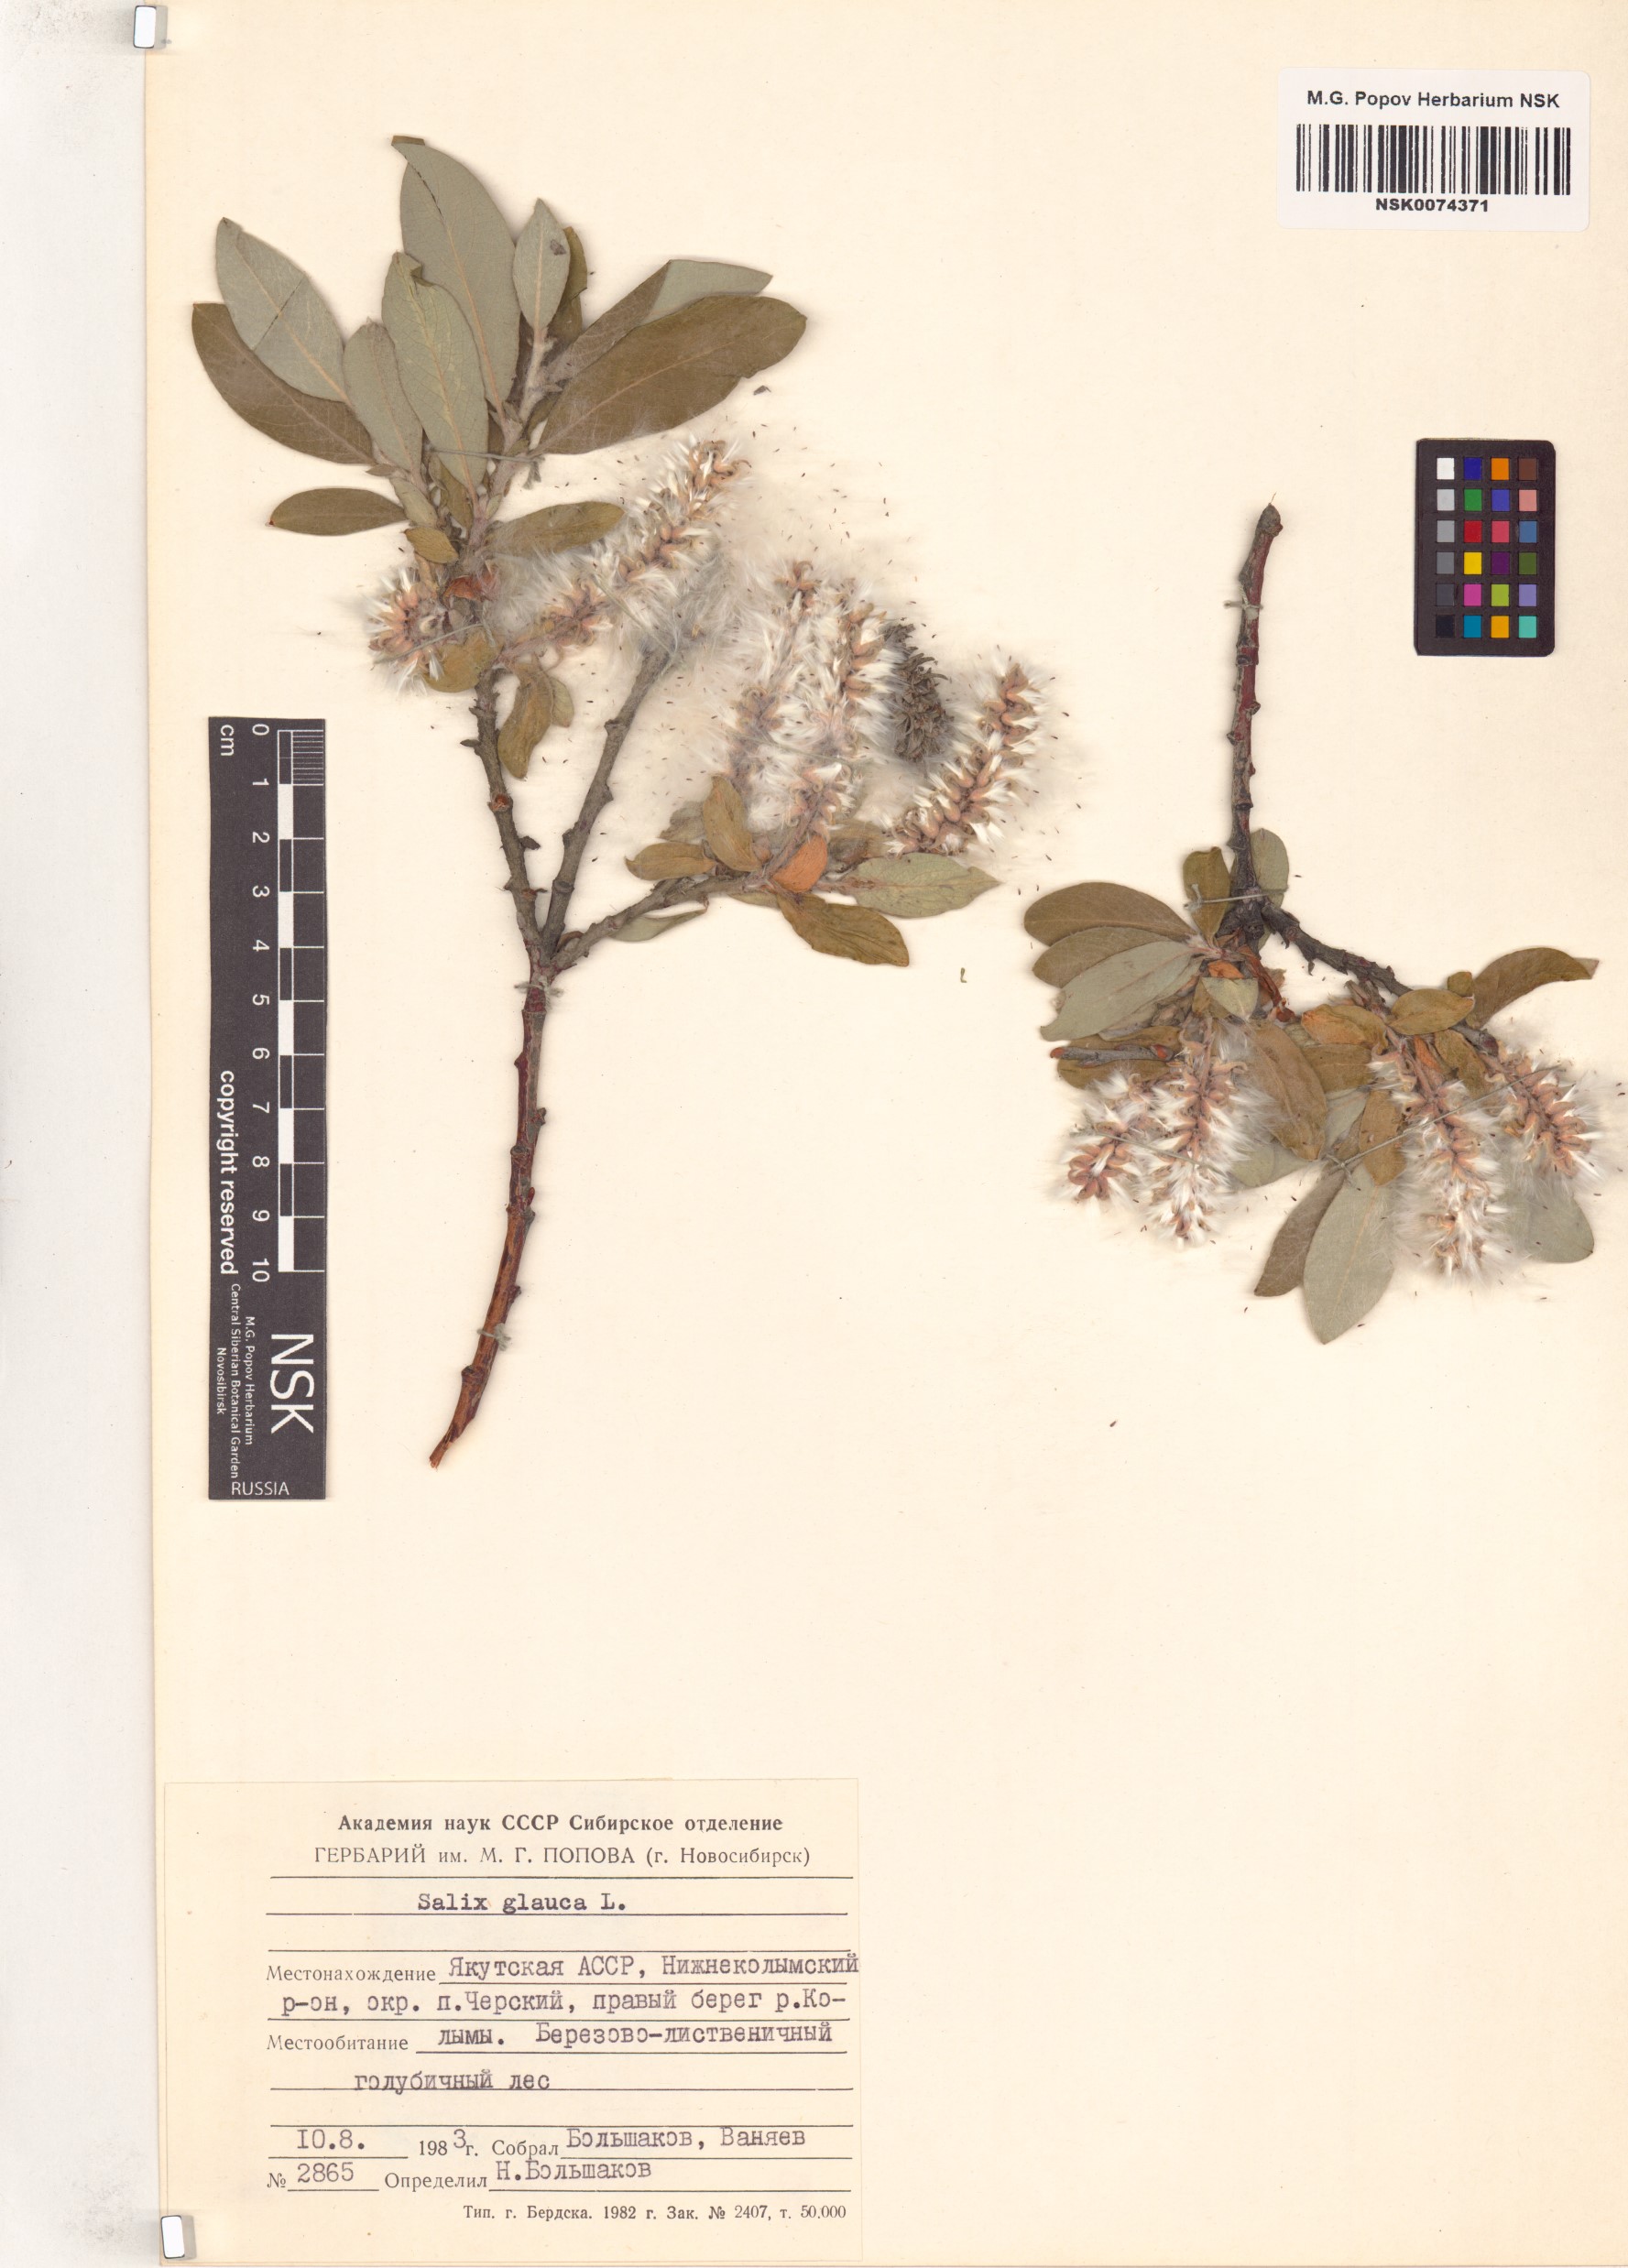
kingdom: Plantae
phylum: Tracheophyta
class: Magnoliopsida
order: Malpighiales
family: Salicaceae
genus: Salix
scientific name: Salix glauca
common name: Glaucous willow
